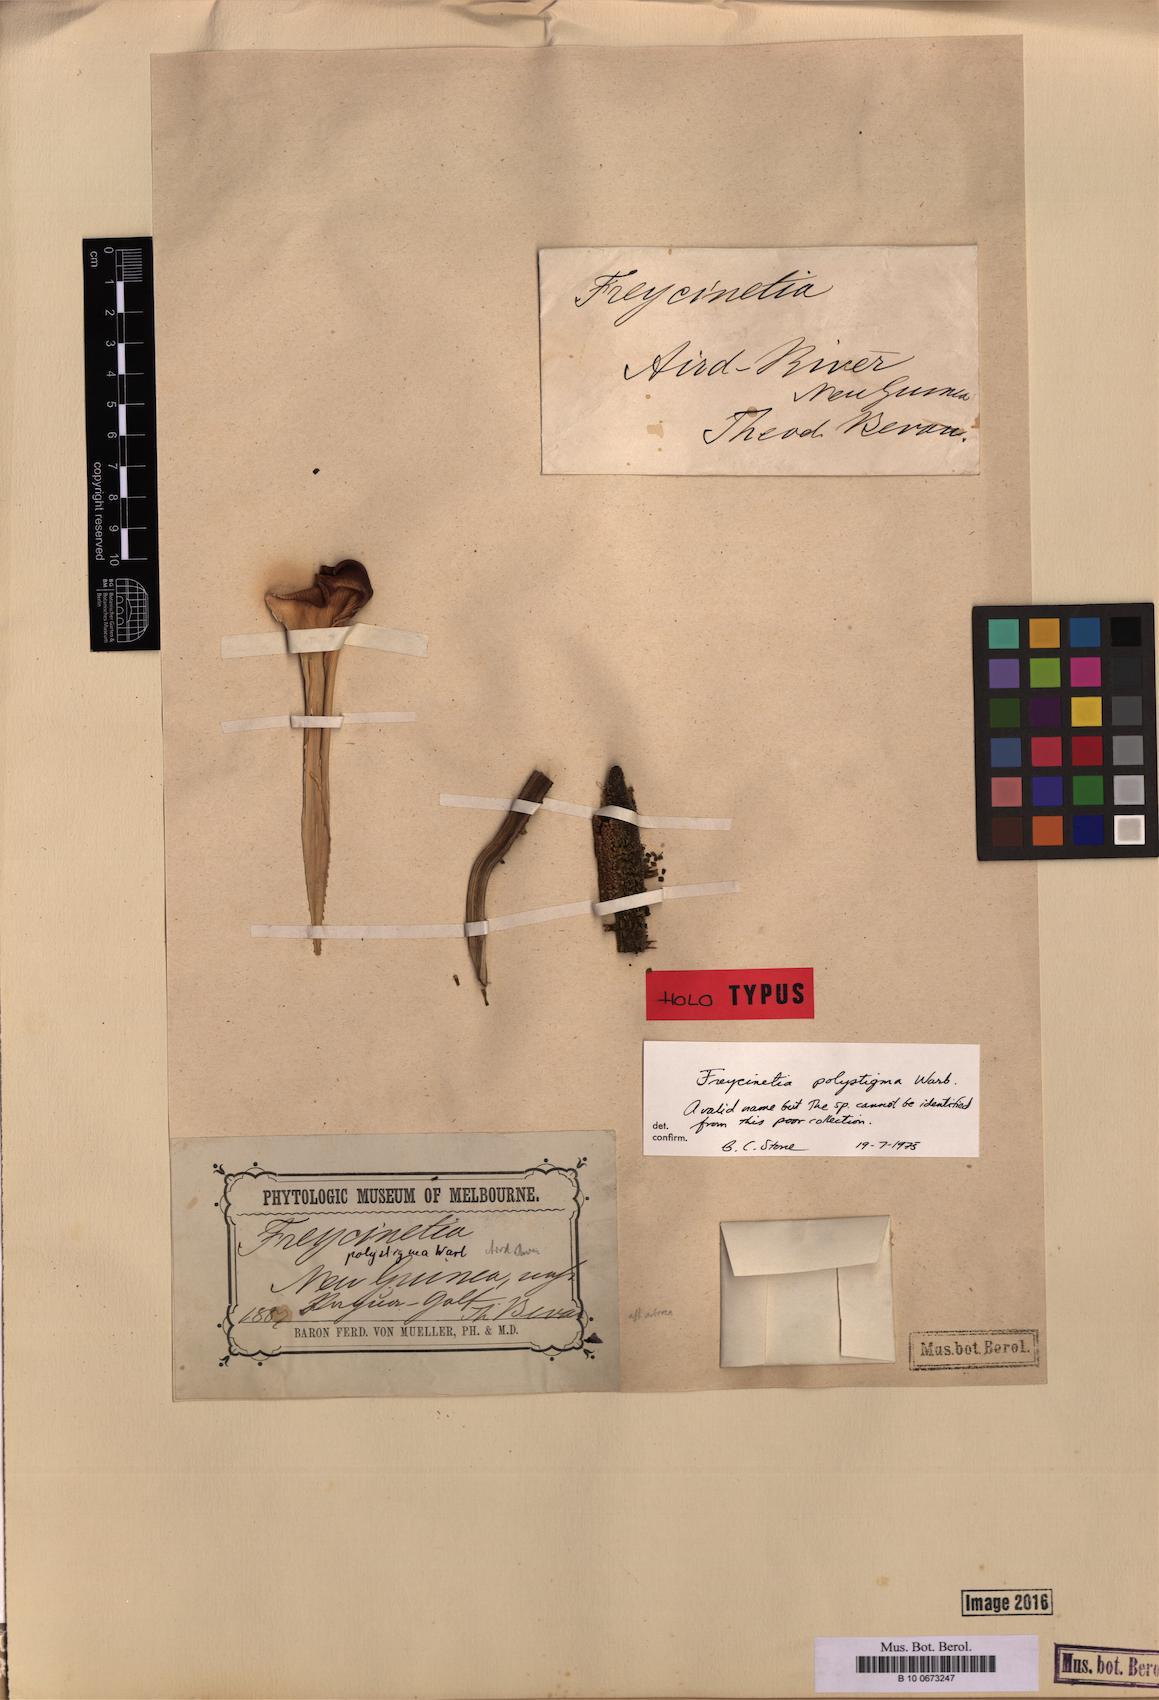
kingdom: Plantae
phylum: Tracheophyta
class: Liliopsida
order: Pandanales
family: Pandanaceae
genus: Freycinetia
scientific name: Freycinetia polystigma
